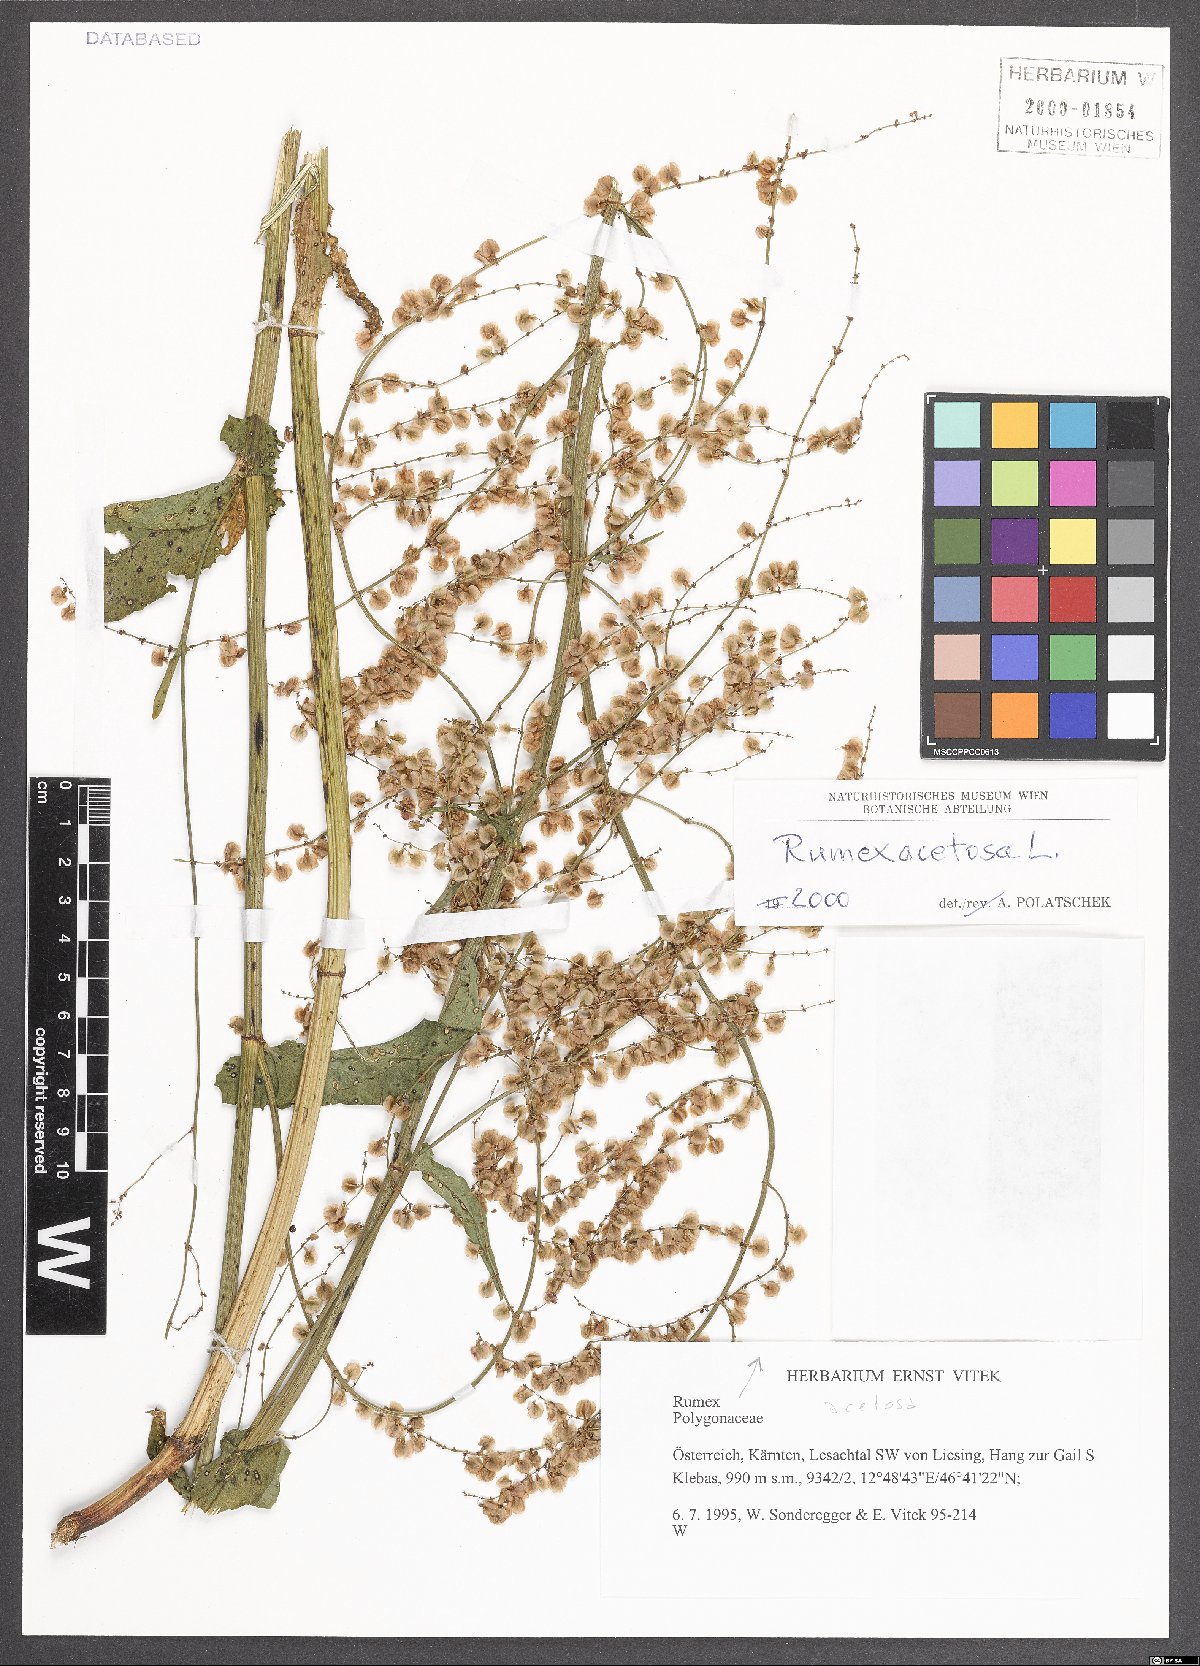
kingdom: Plantae
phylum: Tracheophyta
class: Magnoliopsida
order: Caryophyllales
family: Polygonaceae
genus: Rumex
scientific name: Rumex acetosa
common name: Garden sorrel
